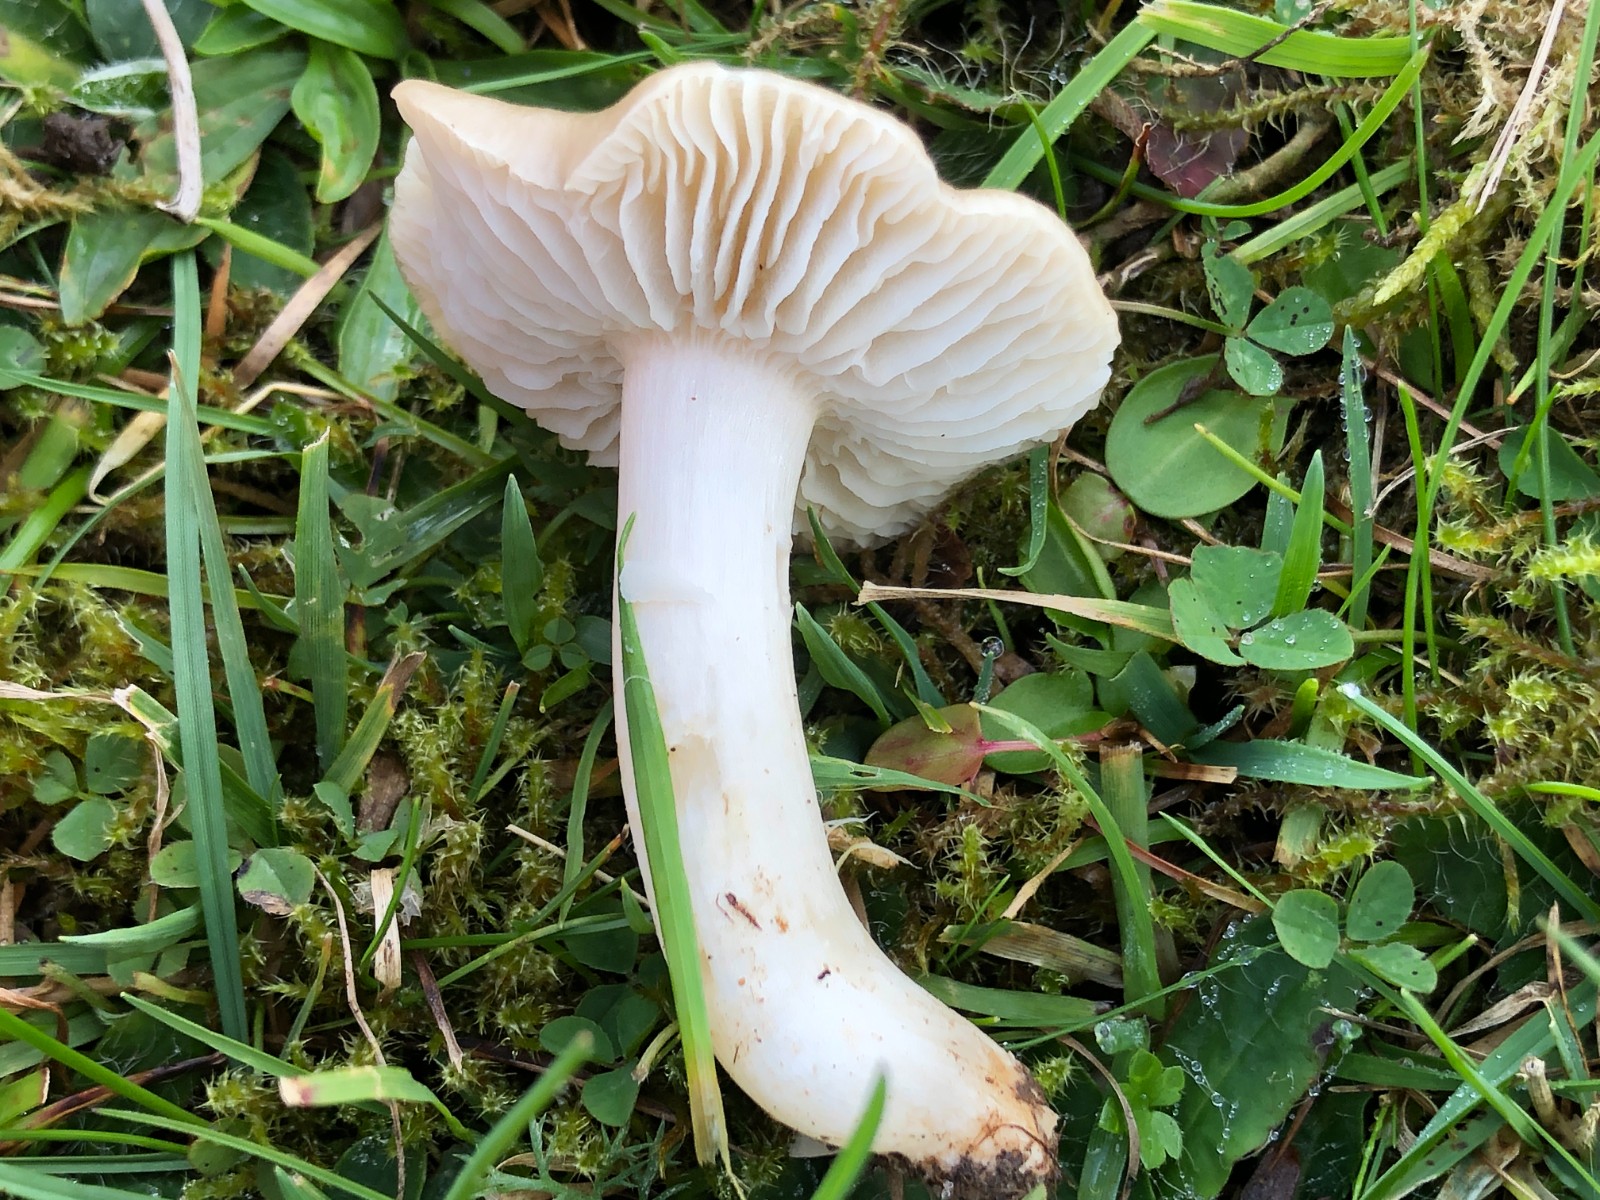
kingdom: Fungi
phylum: Basidiomycota
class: Agaricomycetes
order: Agaricales
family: Hygrophoraceae
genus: Cuphophyllus
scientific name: Cuphophyllus fornicatus
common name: gråbrun vokshat
